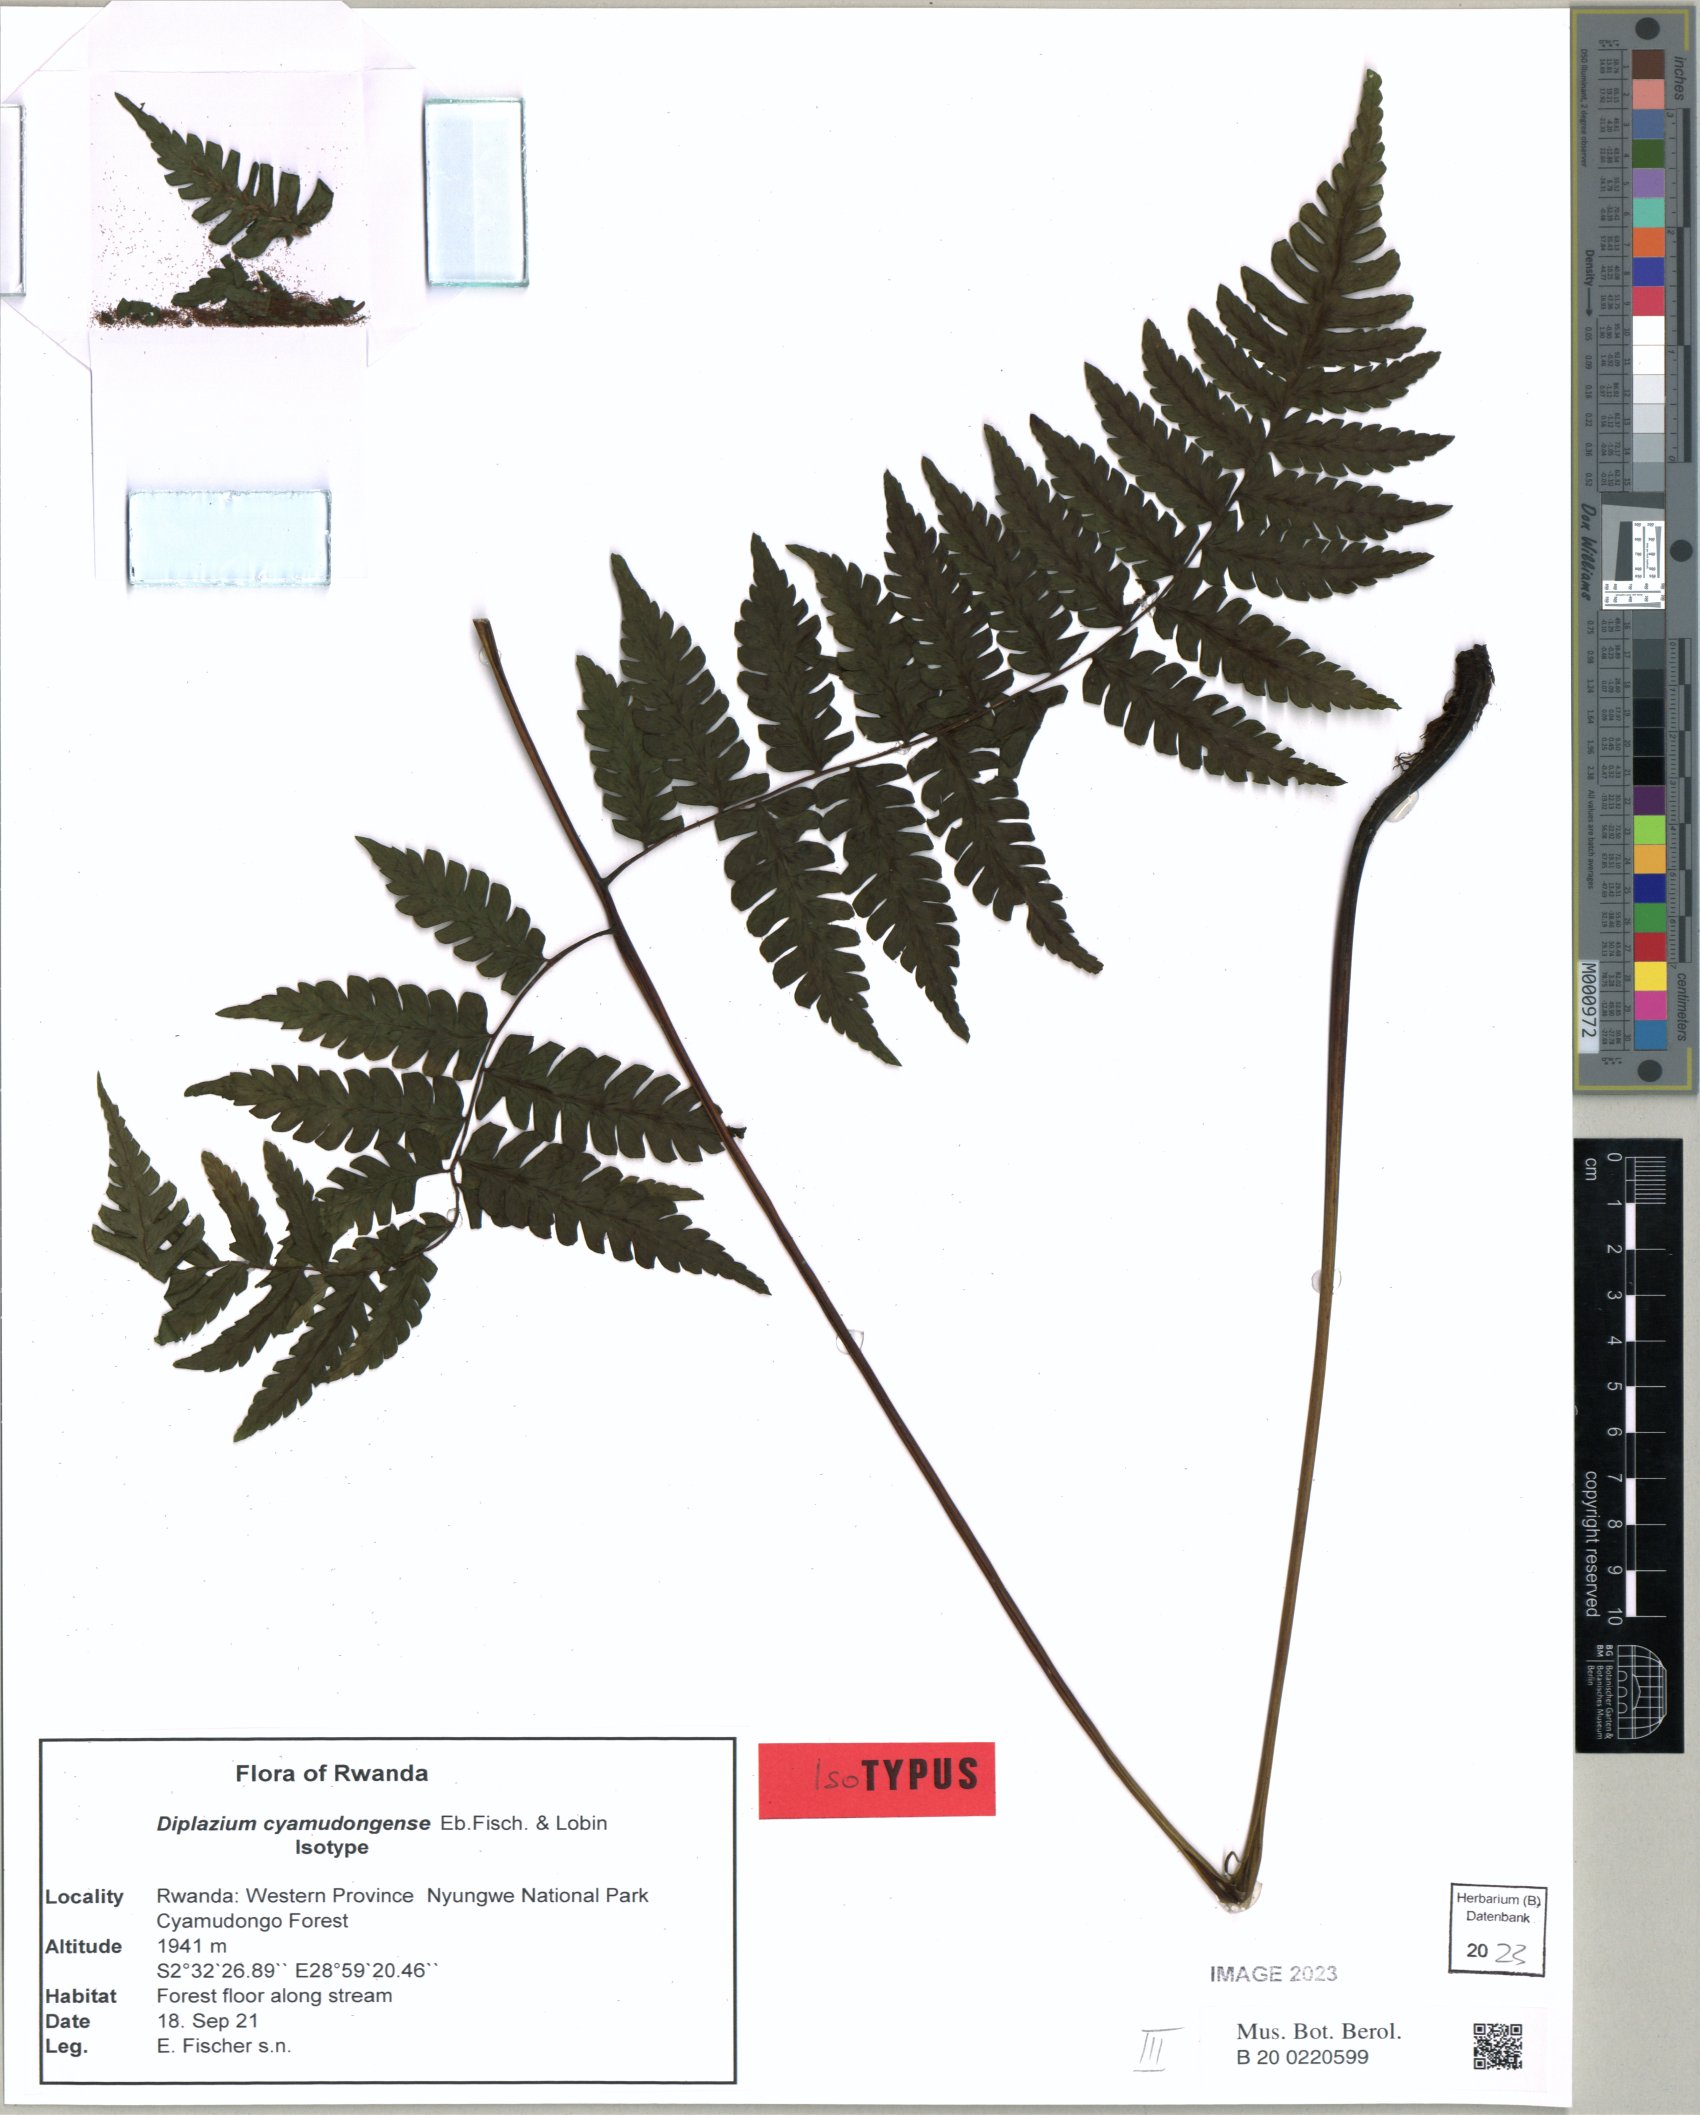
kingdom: Plantae
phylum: Tracheophyta
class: Polypodiopsida
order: Polypodiales
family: Athyriaceae
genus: Diplazium
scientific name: Diplazium cyamudongoense
